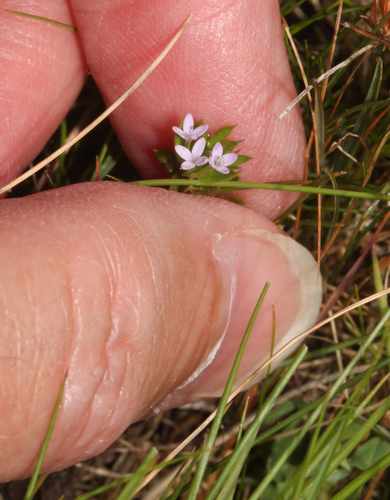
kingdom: Plantae
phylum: Tracheophyta
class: Magnoliopsida
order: Gentianales
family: Rubiaceae
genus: Sherardia
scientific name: Sherardia arvensis
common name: Field madder
